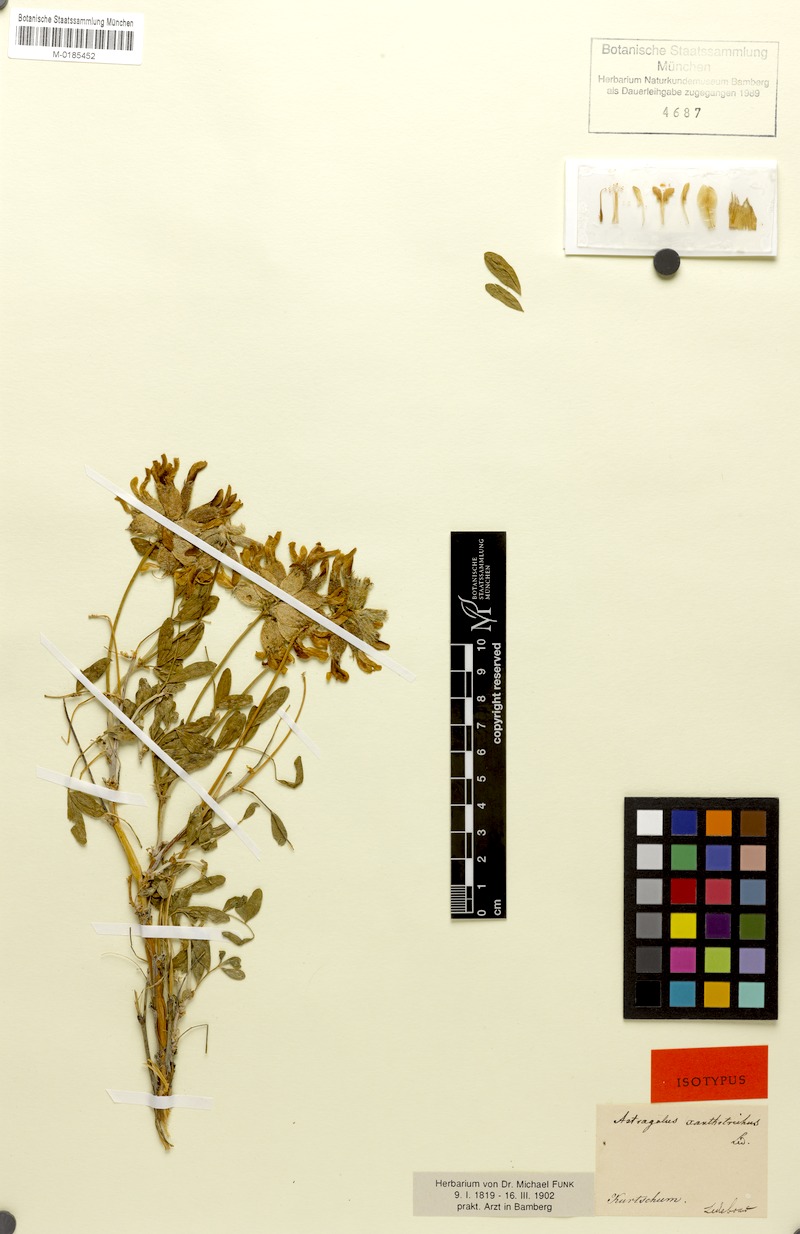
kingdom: Plantae
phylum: Tracheophyta
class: Magnoliopsida
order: Fabales
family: Fabaceae
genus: Astragalus
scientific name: Astragalus xanthotrichos
